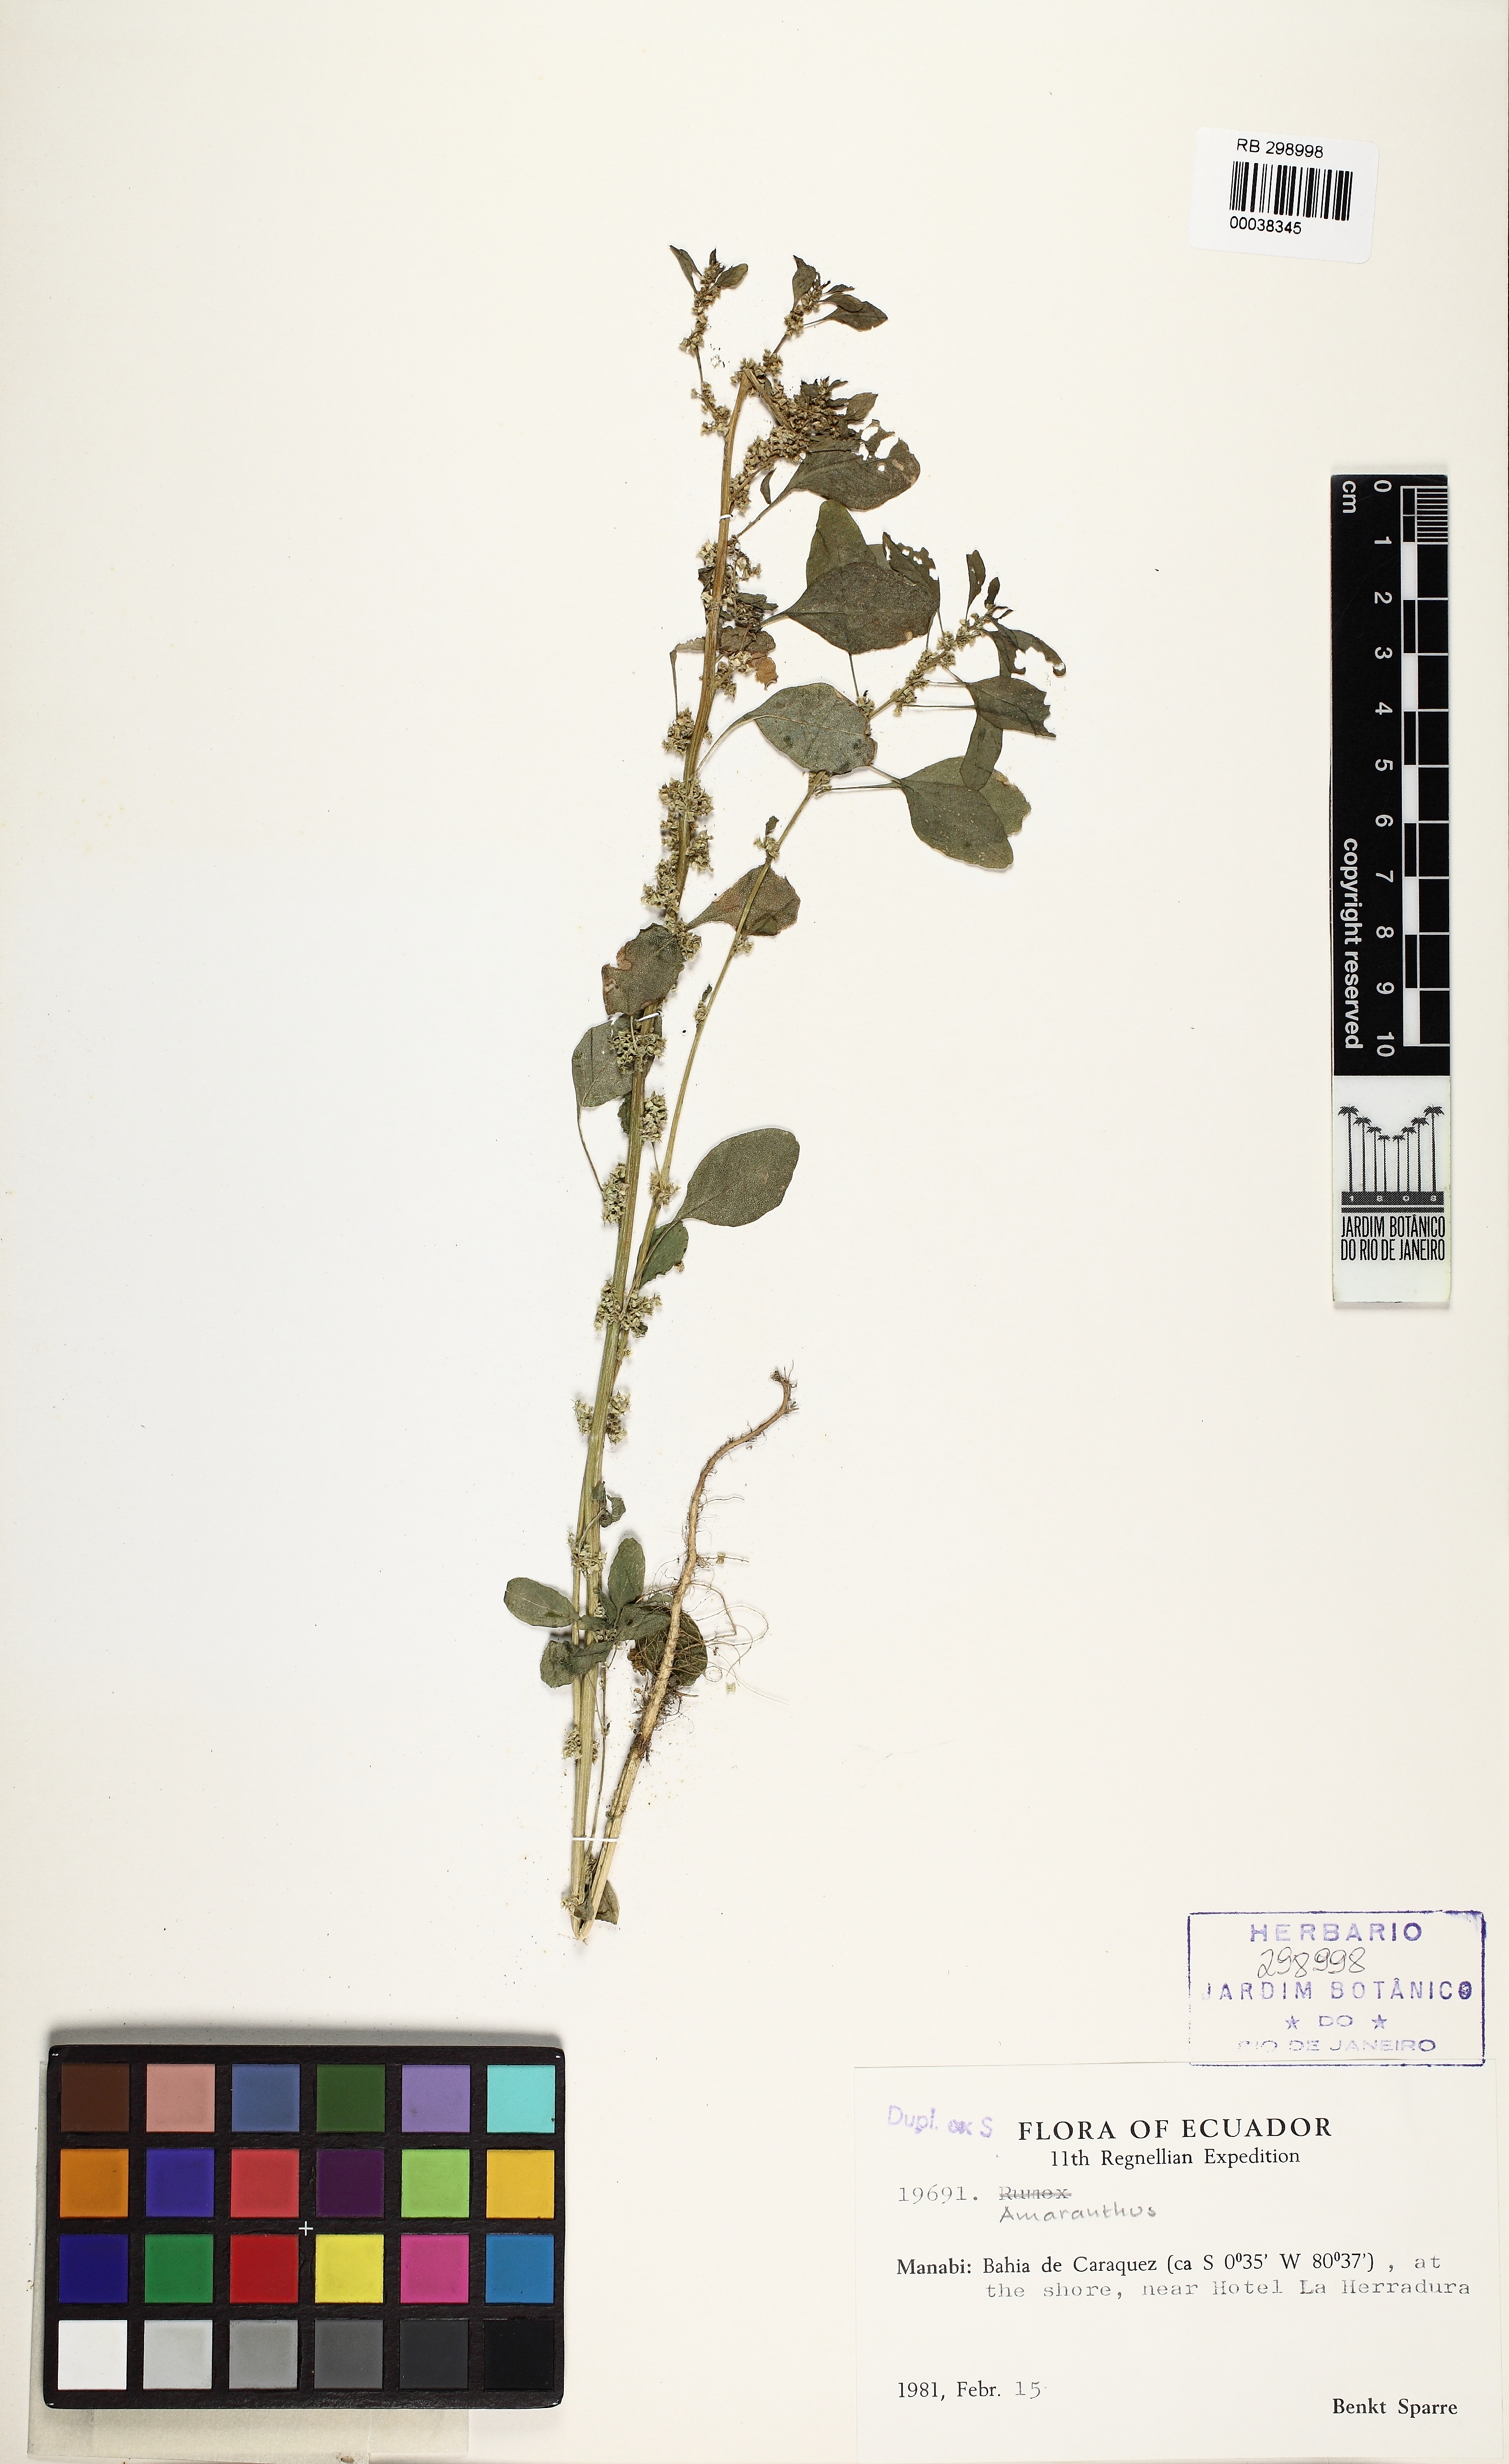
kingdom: Plantae
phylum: Tracheophyta
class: Magnoliopsida
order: Caryophyllales
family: Amaranthaceae
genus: Amaranthus
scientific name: Amaranthus
